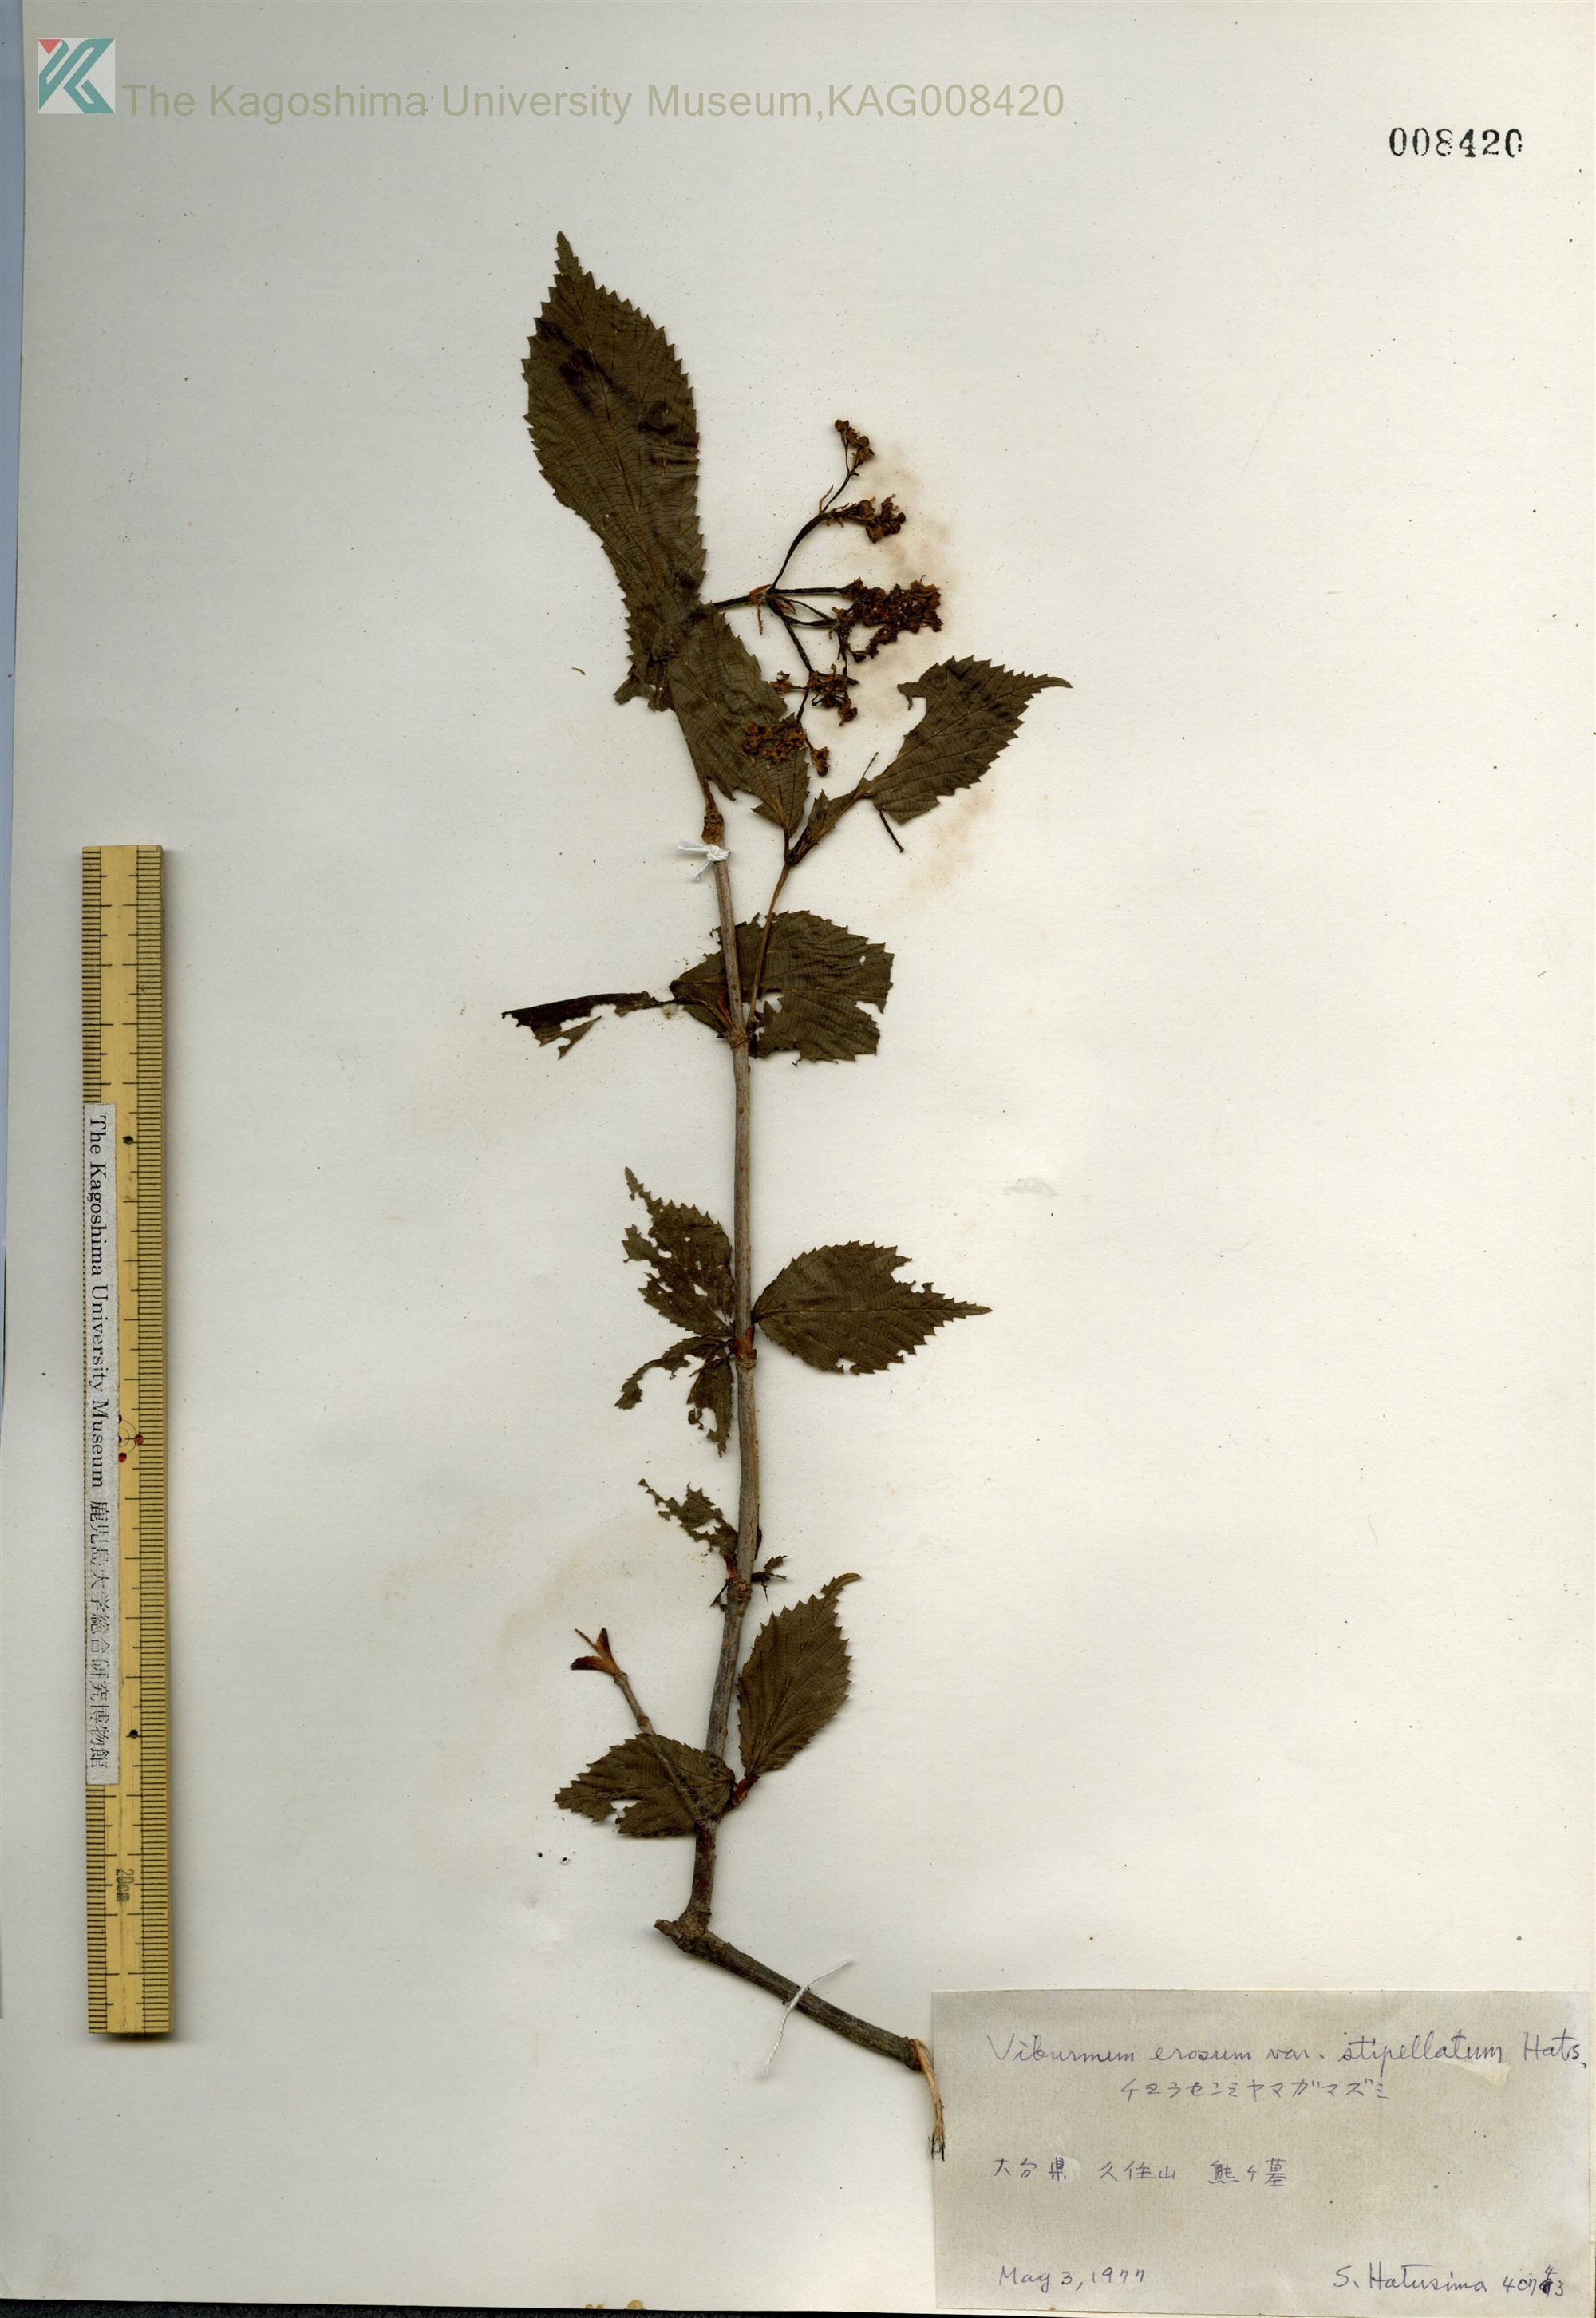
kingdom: Plantae
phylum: Tracheophyta
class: Magnoliopsida
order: Dipsacales
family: Viburnaceae
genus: Viburnum
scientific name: Viburnum erosum
